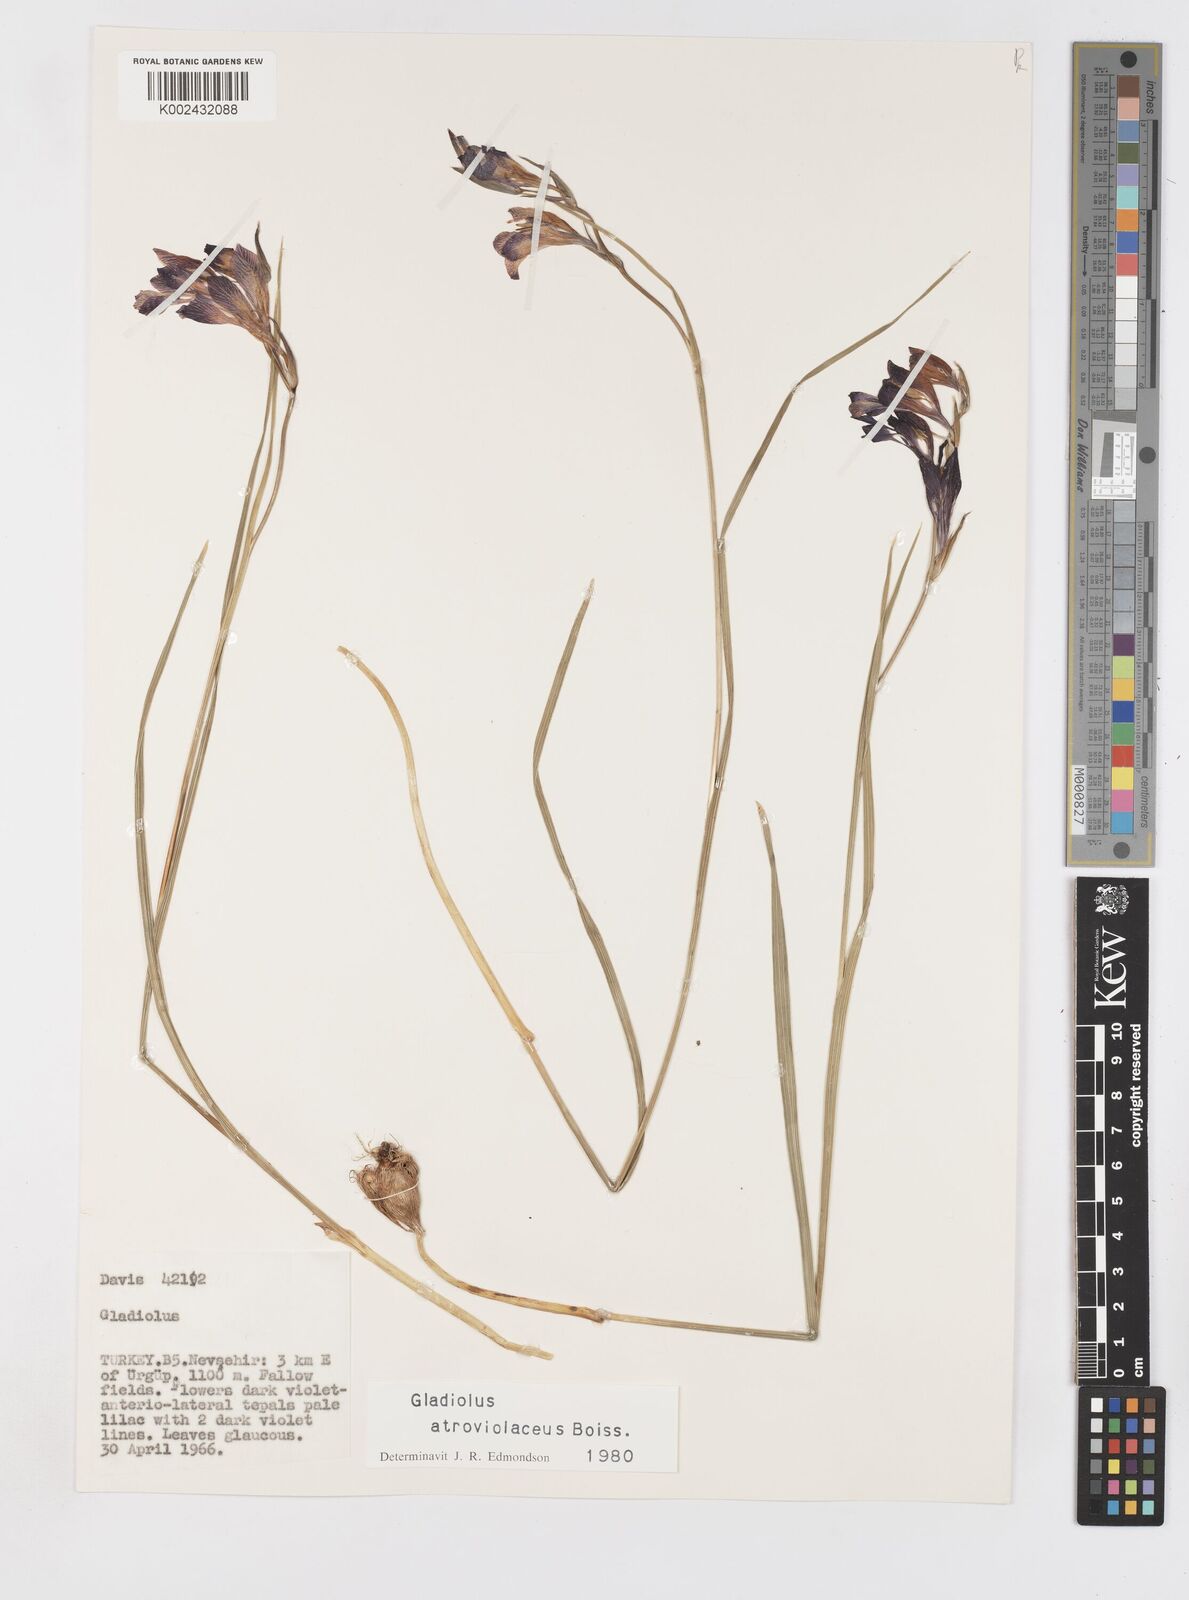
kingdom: Plantae
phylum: Tracheophyta
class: Liliopsida
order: Asparagales
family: Iridaceae
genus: Gladiolus
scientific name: Gladiolus atroviolaceus
